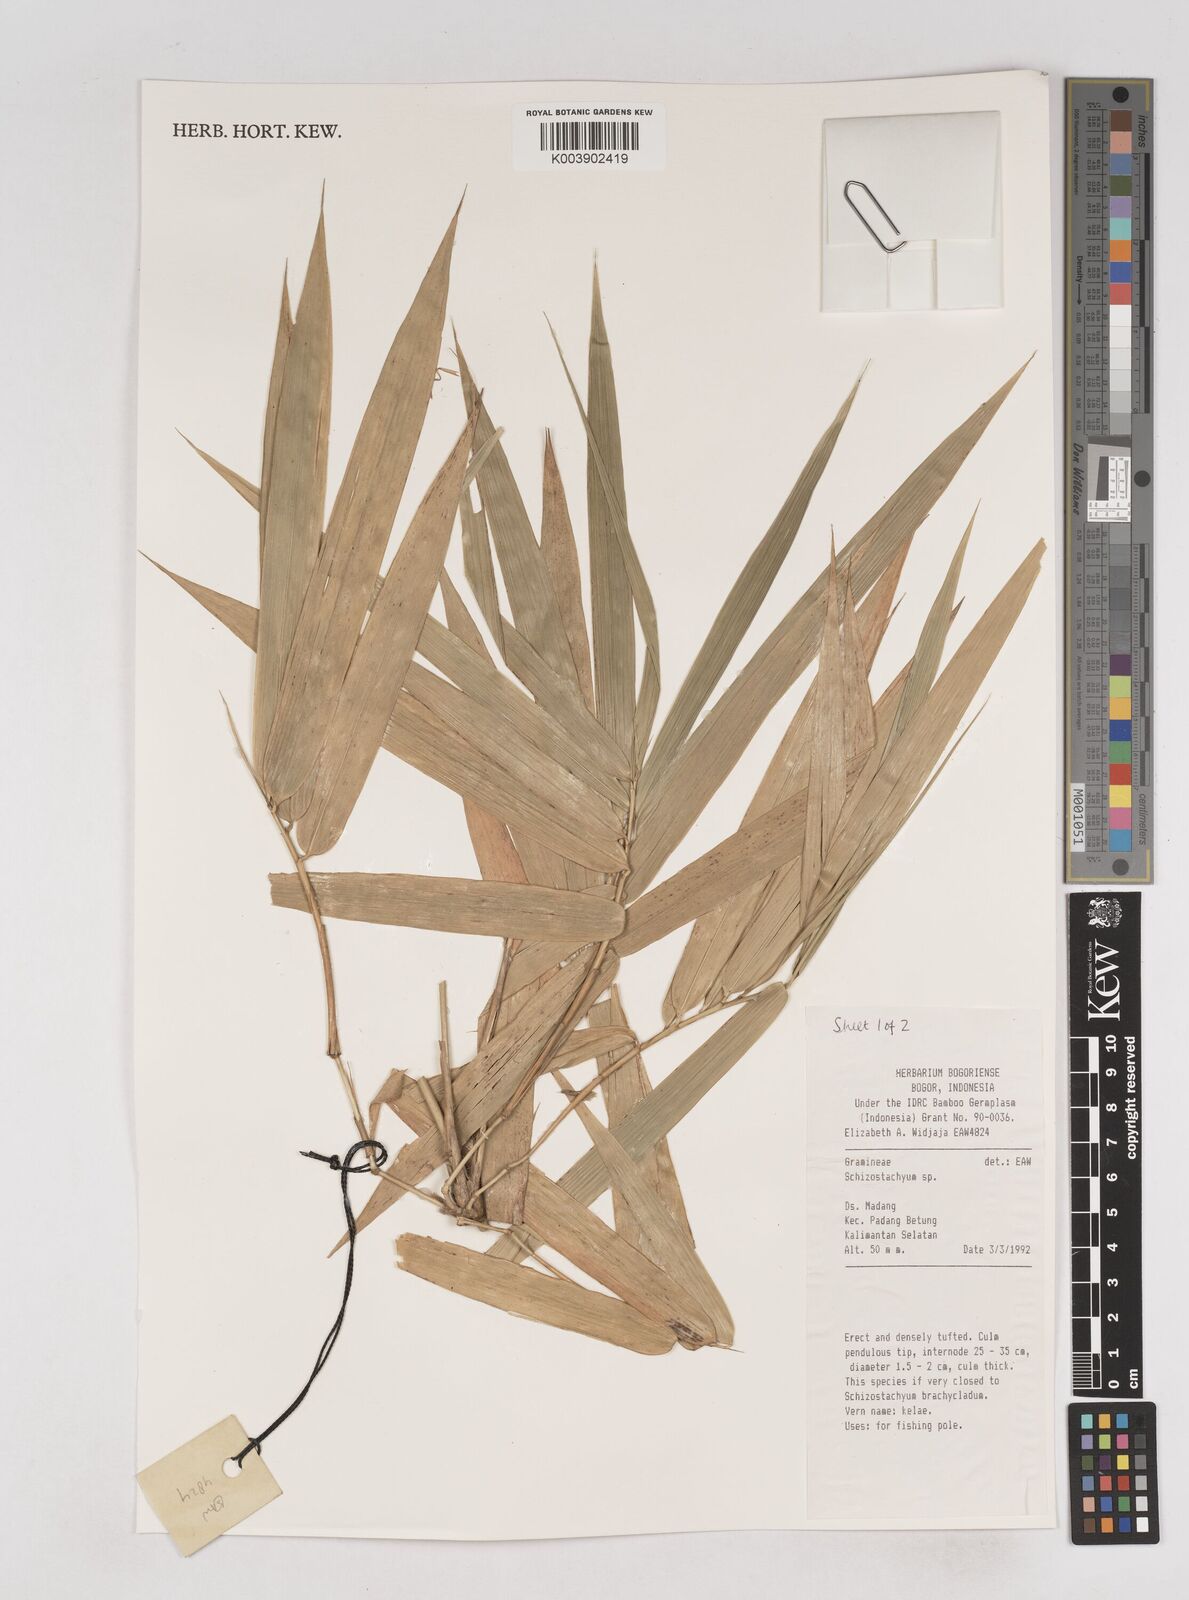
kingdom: Plantae
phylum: Tracheophyta
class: Liliopsida
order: Poales
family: Poaceae
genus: Schizostachyum
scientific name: Schizostachyum
